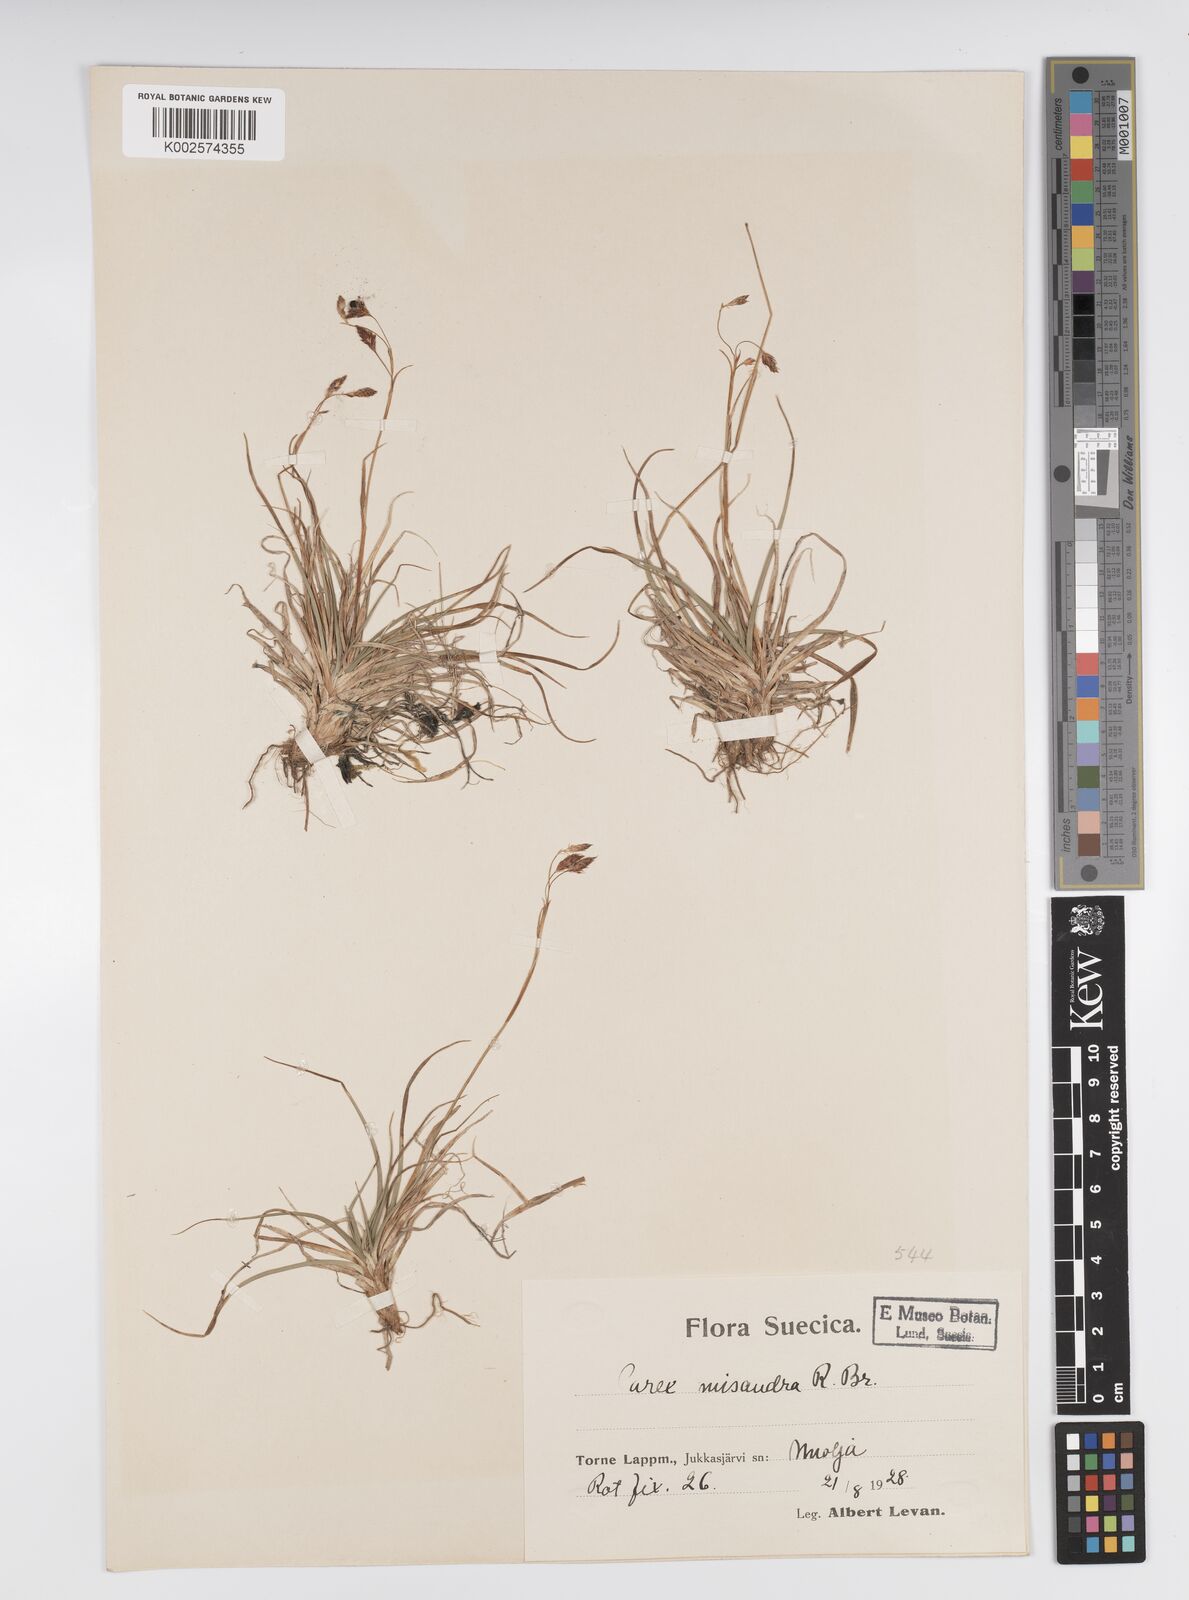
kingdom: Plantae
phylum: Tracheophyta
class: Liliopsida
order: Poales
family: Cyperaceae
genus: Carex
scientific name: Carex fuliginosa
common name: Few-flowered sedge
